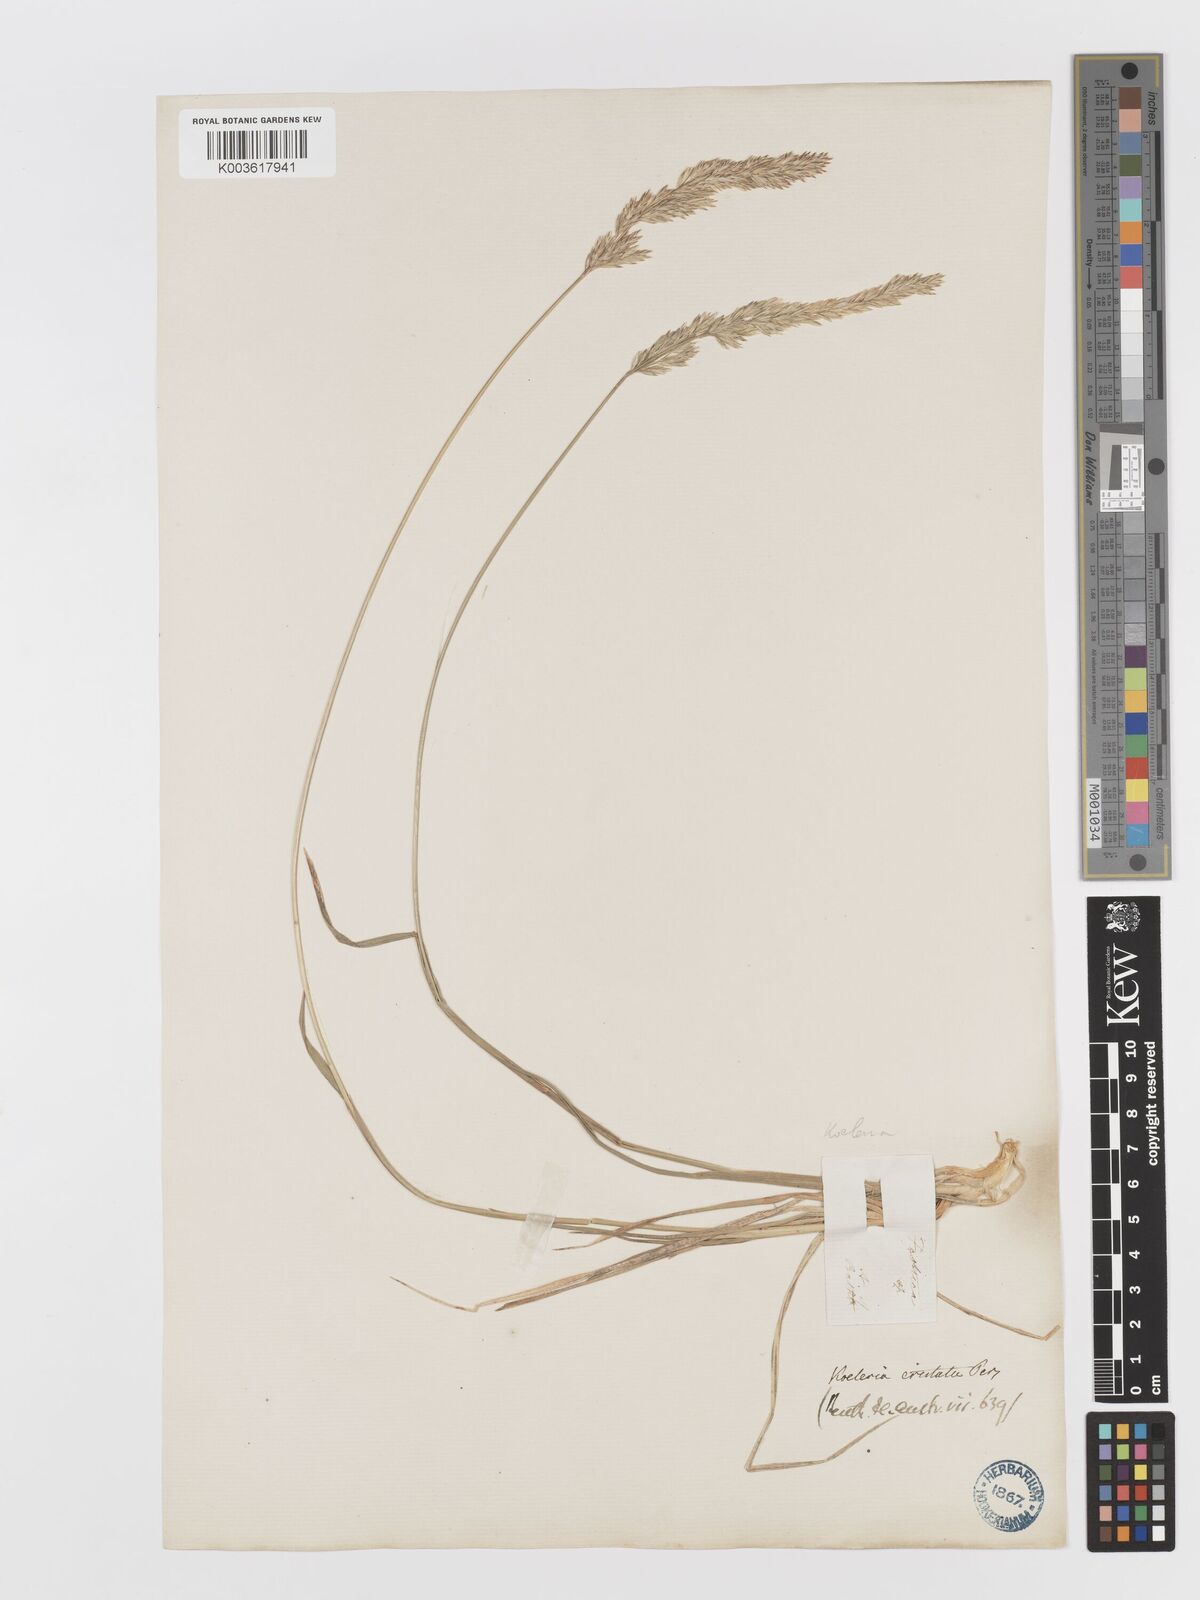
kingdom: Plantae
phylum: Tracheophyta
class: Liliopsida
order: Poales
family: Poaceae
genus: Koeleria
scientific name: Koeleria macrantha
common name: Crested hair-grass
